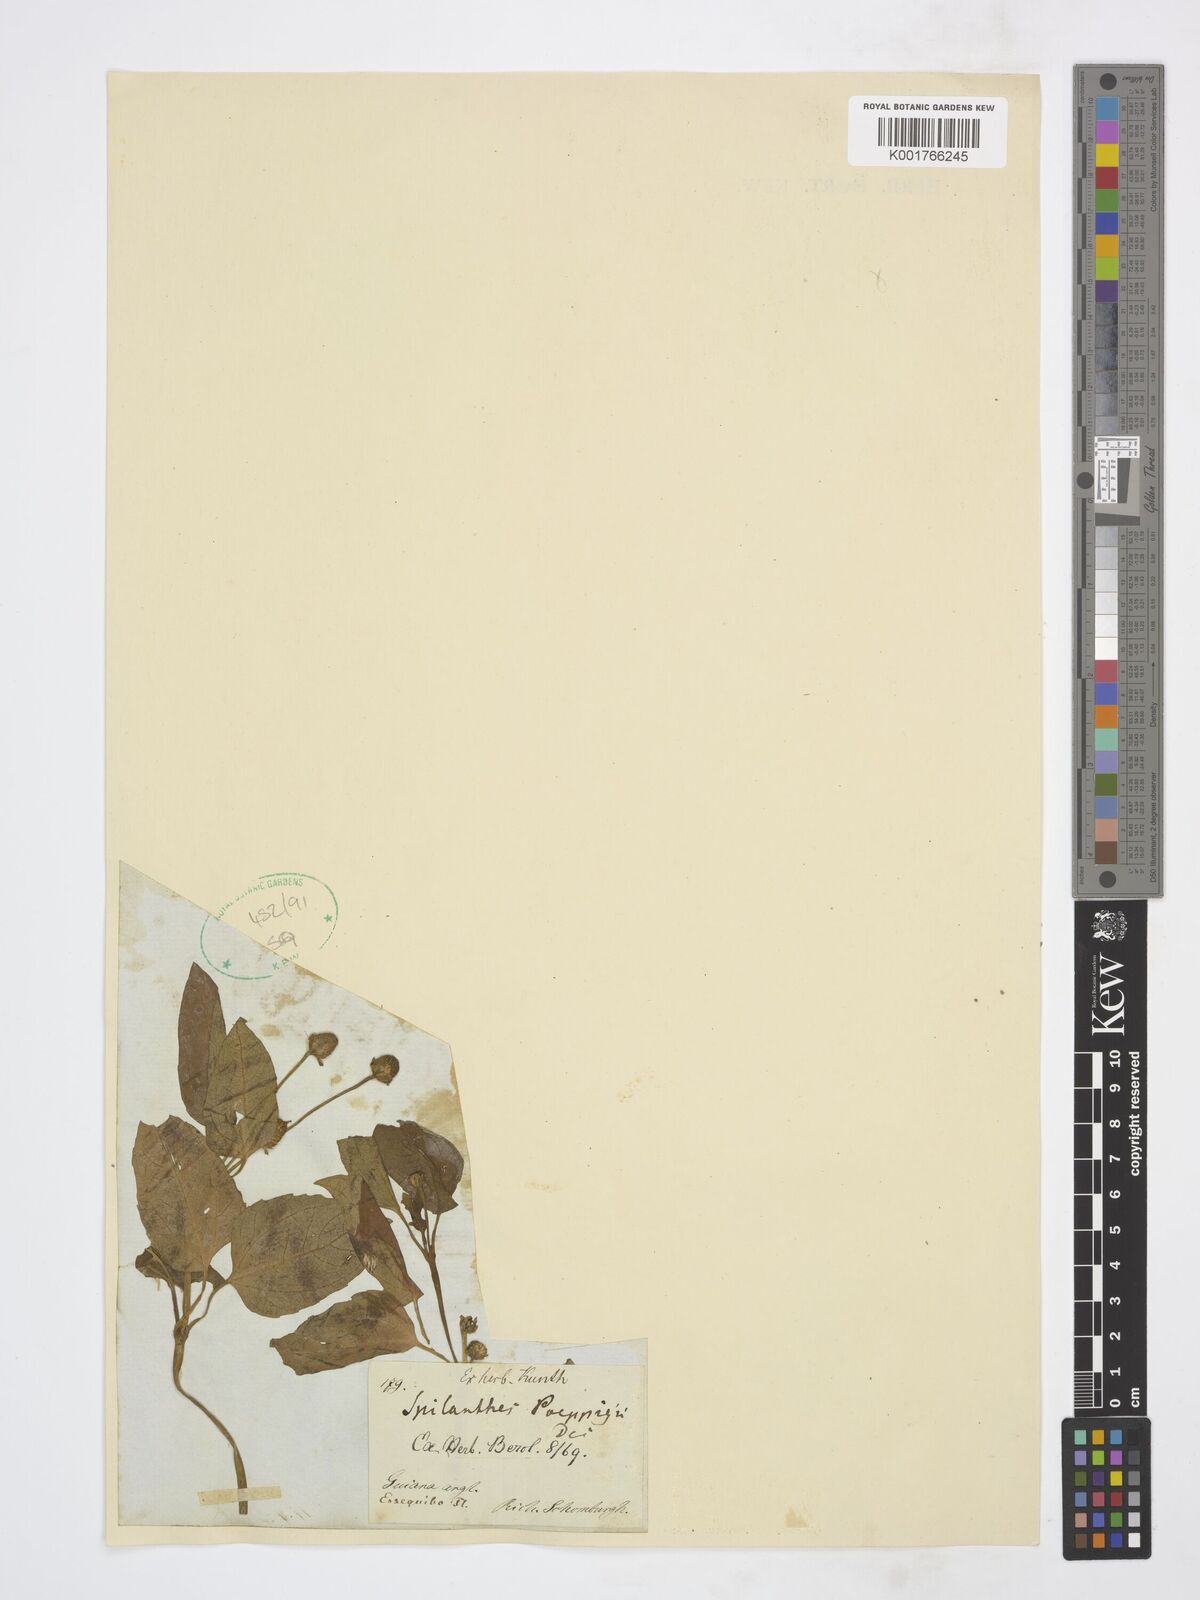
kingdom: Plantae
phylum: Tracheophyta
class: Magnoliopsida
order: Asterales
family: Asteraceae
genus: Acmella
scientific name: Acmella ciliata
